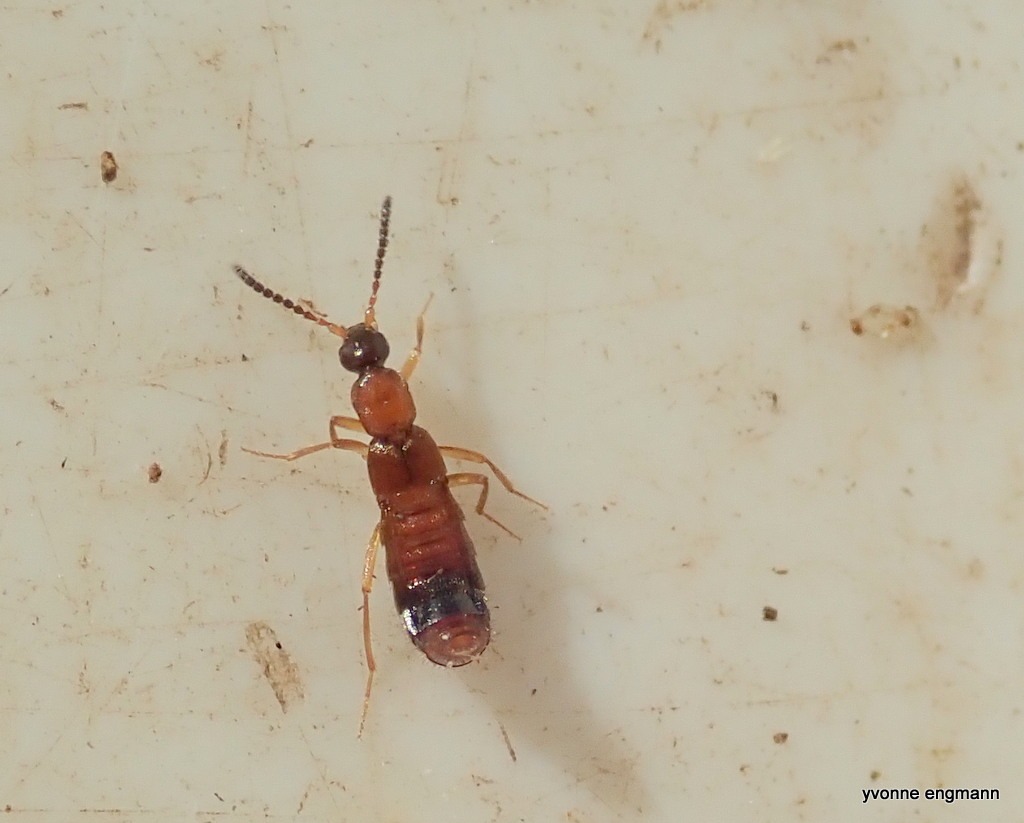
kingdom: Animalia
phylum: Arthropoda
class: Insecta
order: Coleoptera
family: Staphylinidae
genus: Drusilla
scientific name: Drusilla canaliculata
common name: Myrerøver
